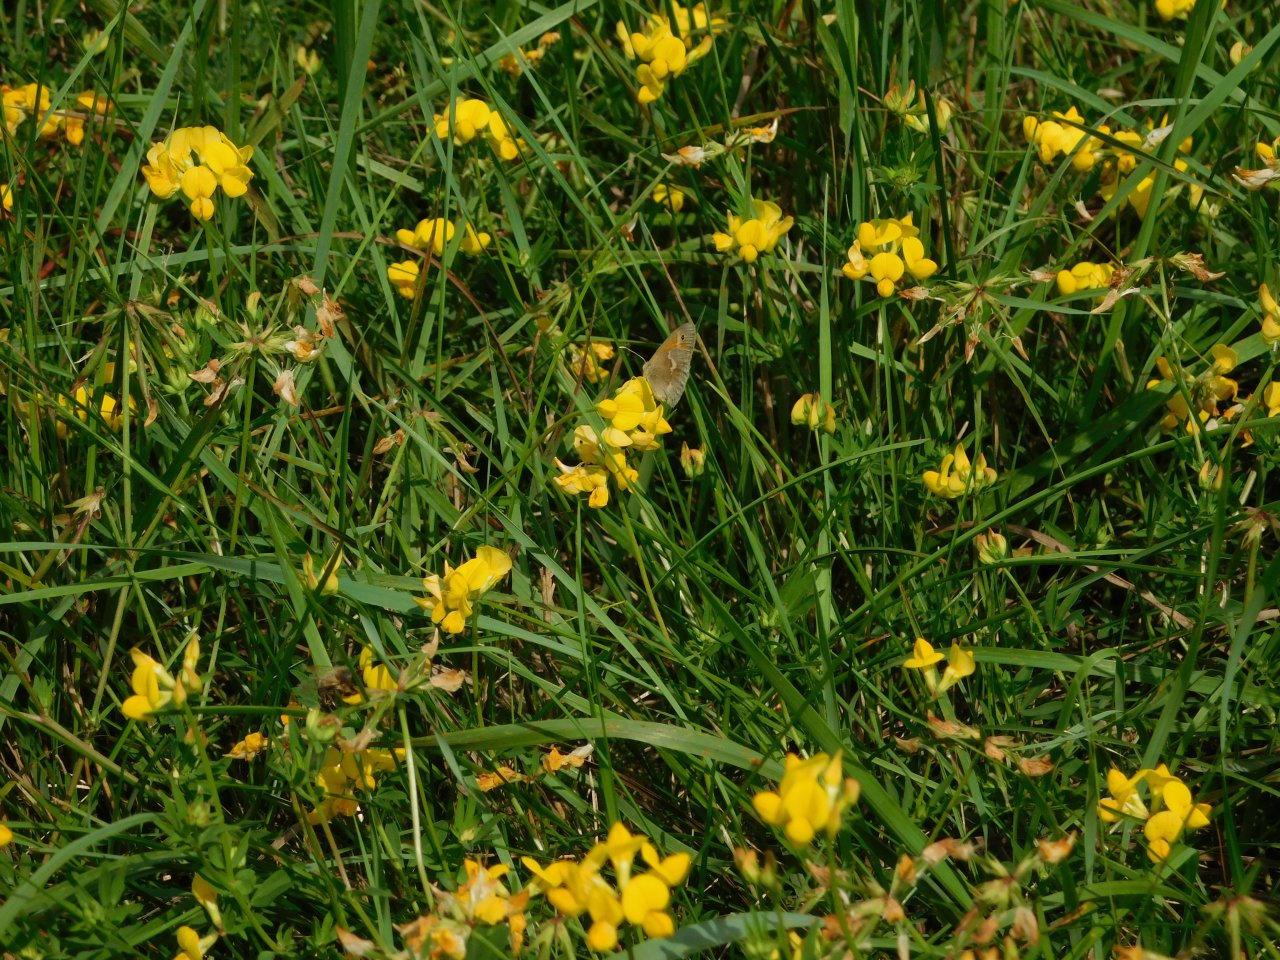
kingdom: Animalia
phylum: Arthropoda
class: Insecta
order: Lepidoptera
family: Nymphalidae
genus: Coenonympha
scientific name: Coenonympha tullia
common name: Large Heath
